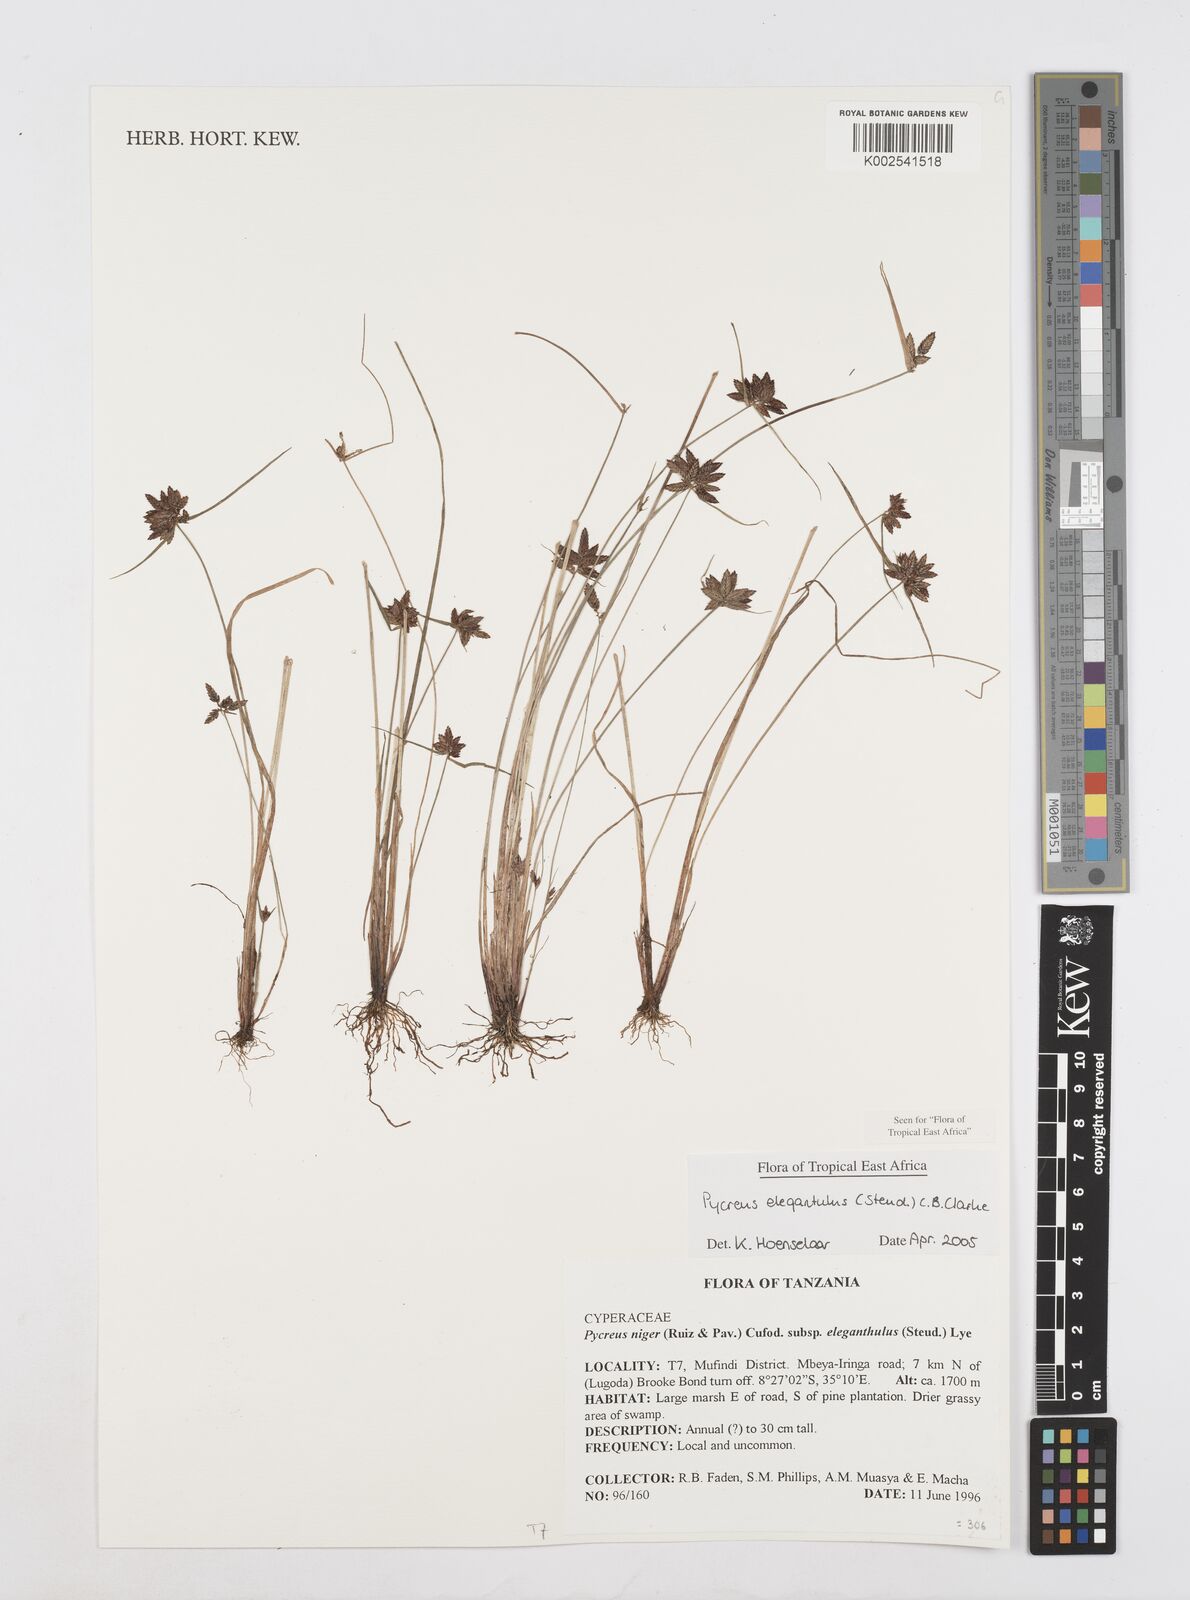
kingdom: Plantae
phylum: Tracheophyta
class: Liliopsida
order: Poales
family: Cyperaceae
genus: Cyperus
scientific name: Cyperus elegantulus
